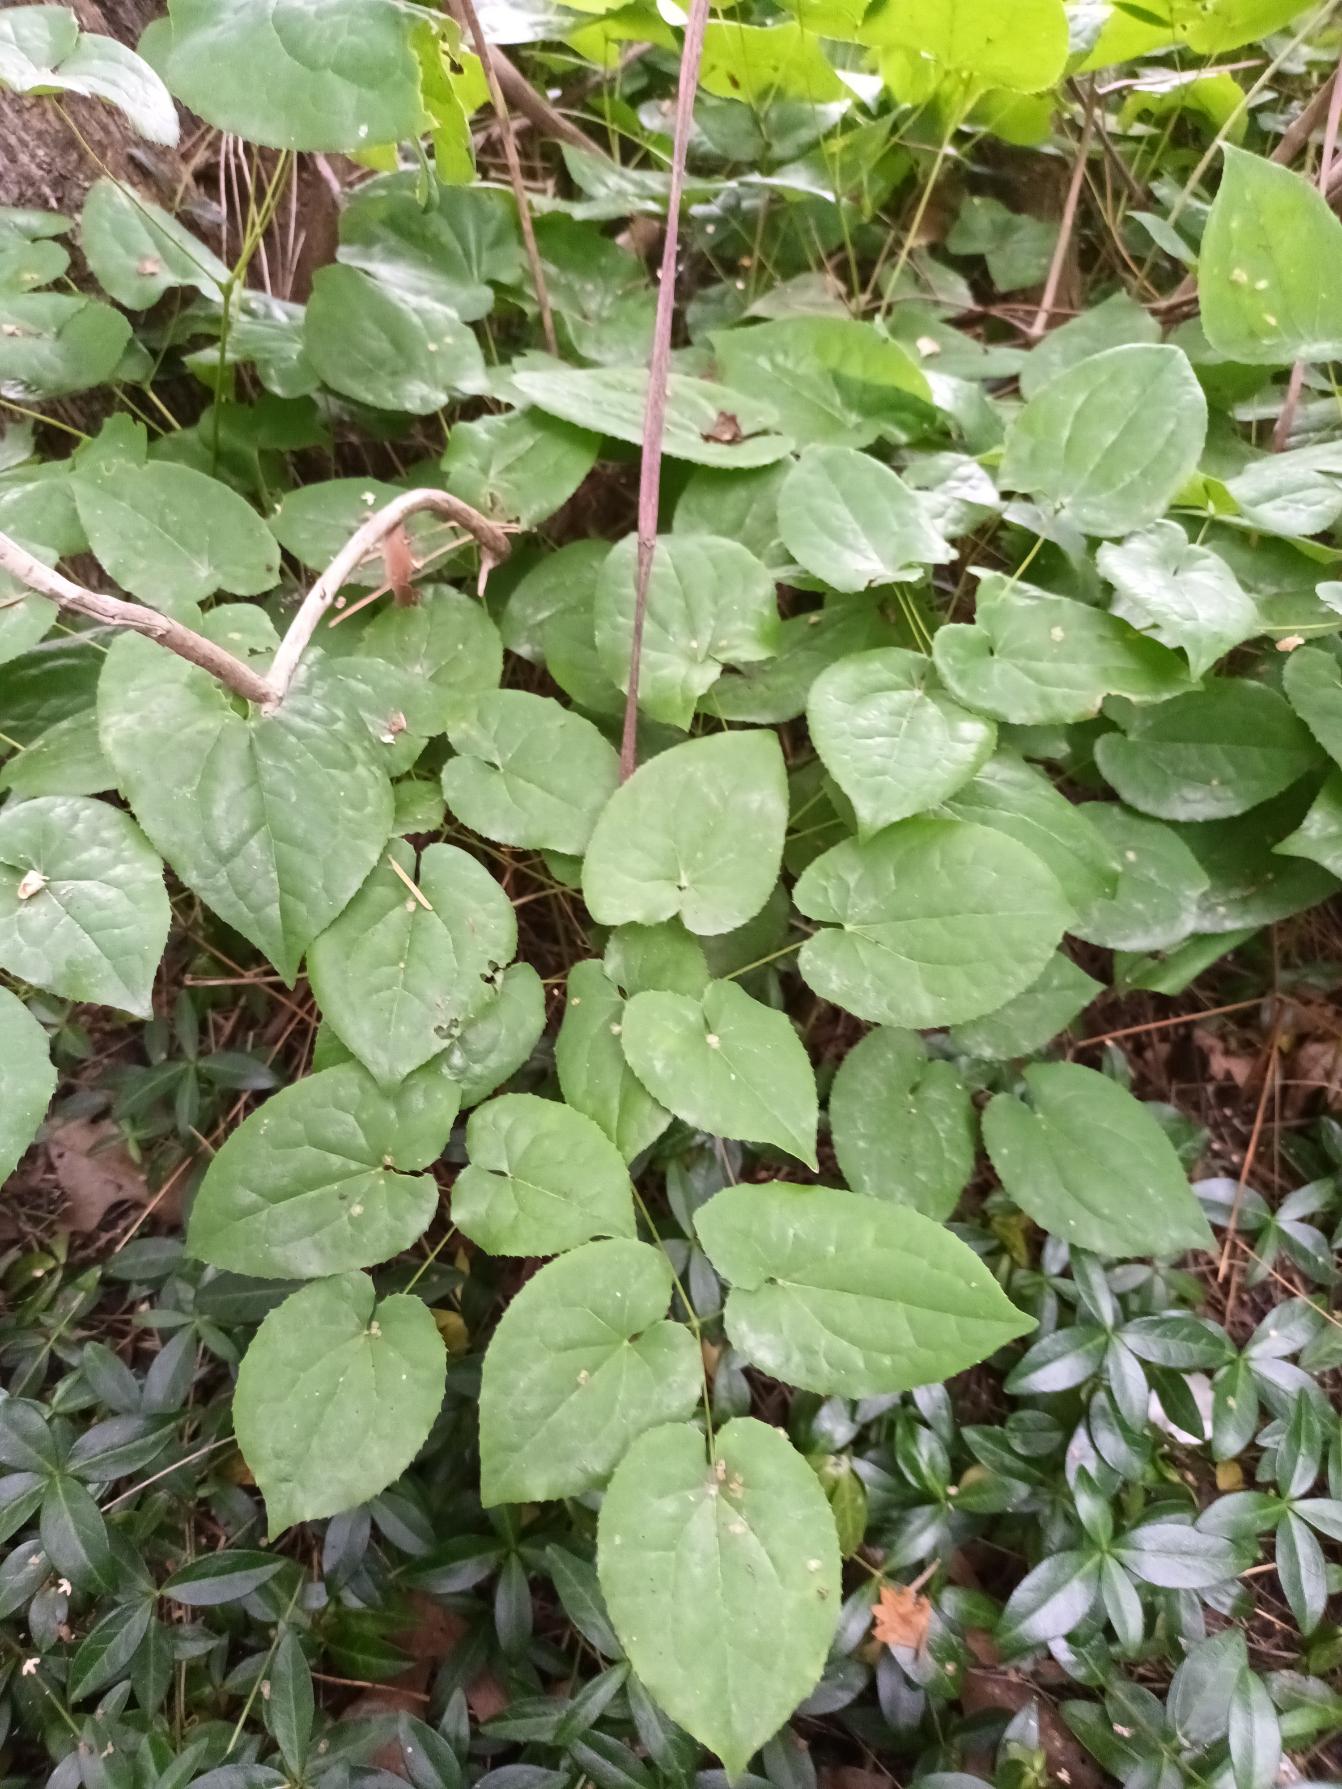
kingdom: Plantae
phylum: Tracheophyta
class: Magnoliopsida
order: Ranunculales
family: Berberidaceae
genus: Epimedium
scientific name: Epimedium
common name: Bispehue (Epimedium-slægten)
